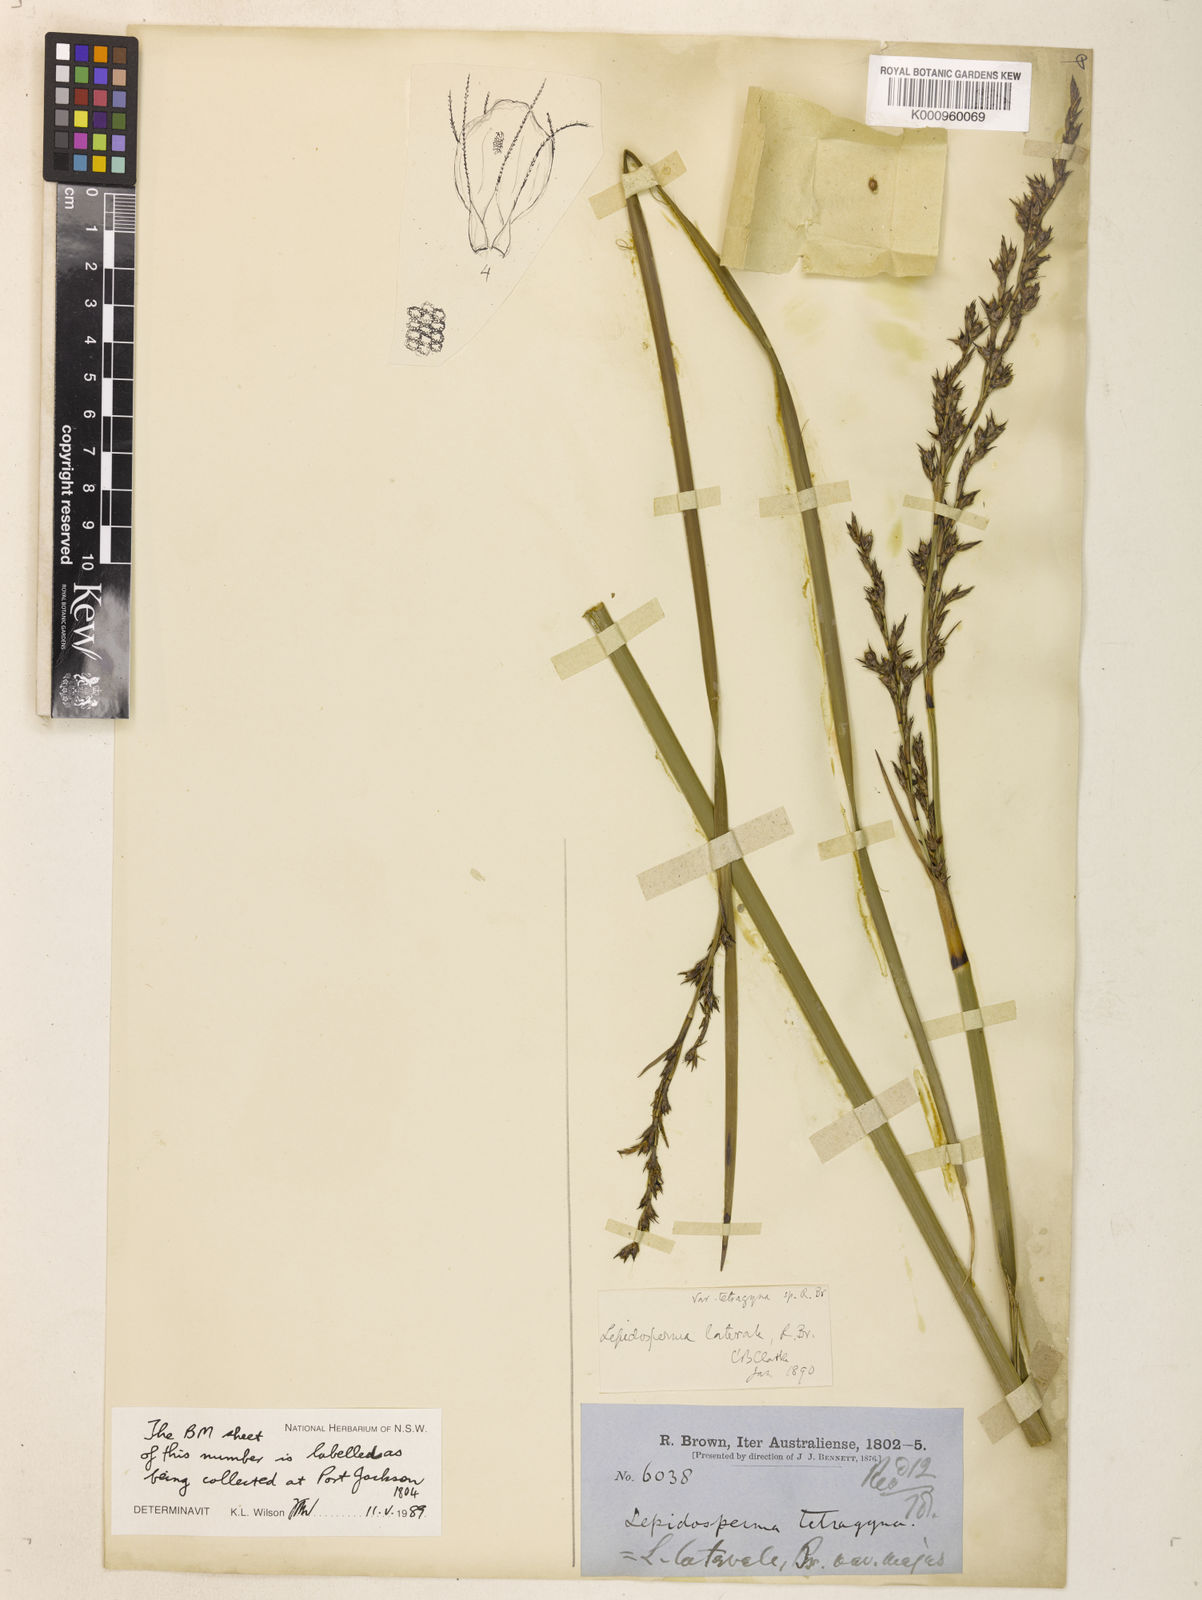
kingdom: Plantae
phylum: Tracheophyta
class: Liliopsida
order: Poales
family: Cyperaceae
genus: Lepidosperma
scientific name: Lepidosperma laterale
